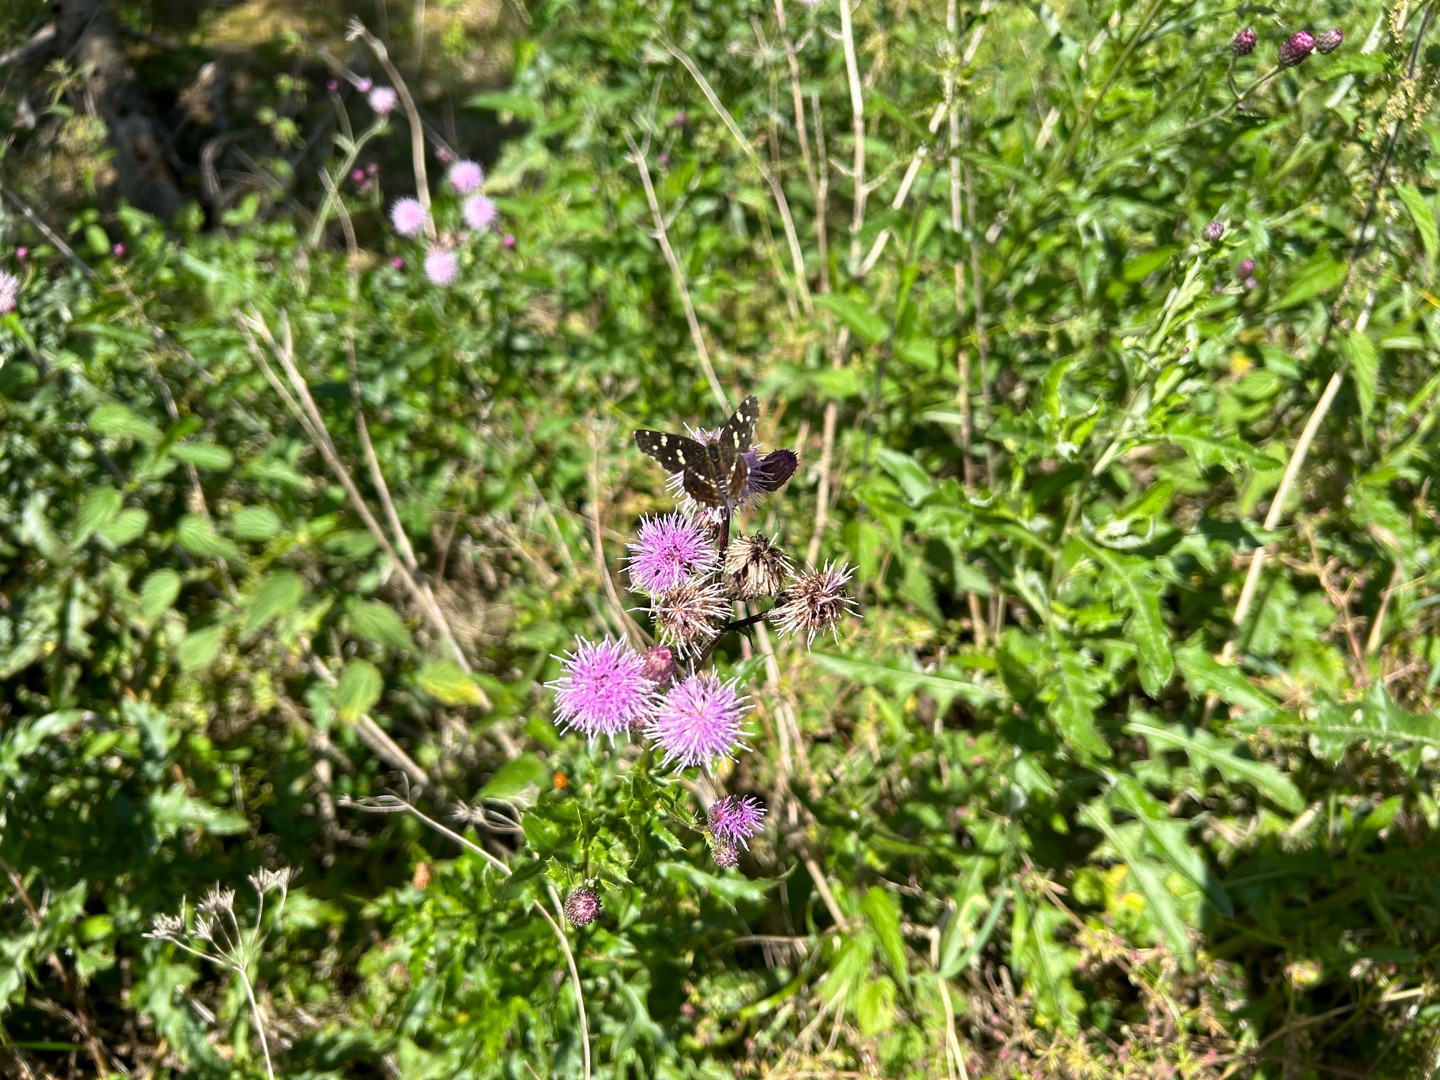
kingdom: Animalia
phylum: Arthropoda
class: Insecta
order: Lepidoptera
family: Nymphalidae
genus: Araschnia
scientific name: Araschnia levana
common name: Nældesommerfugl
